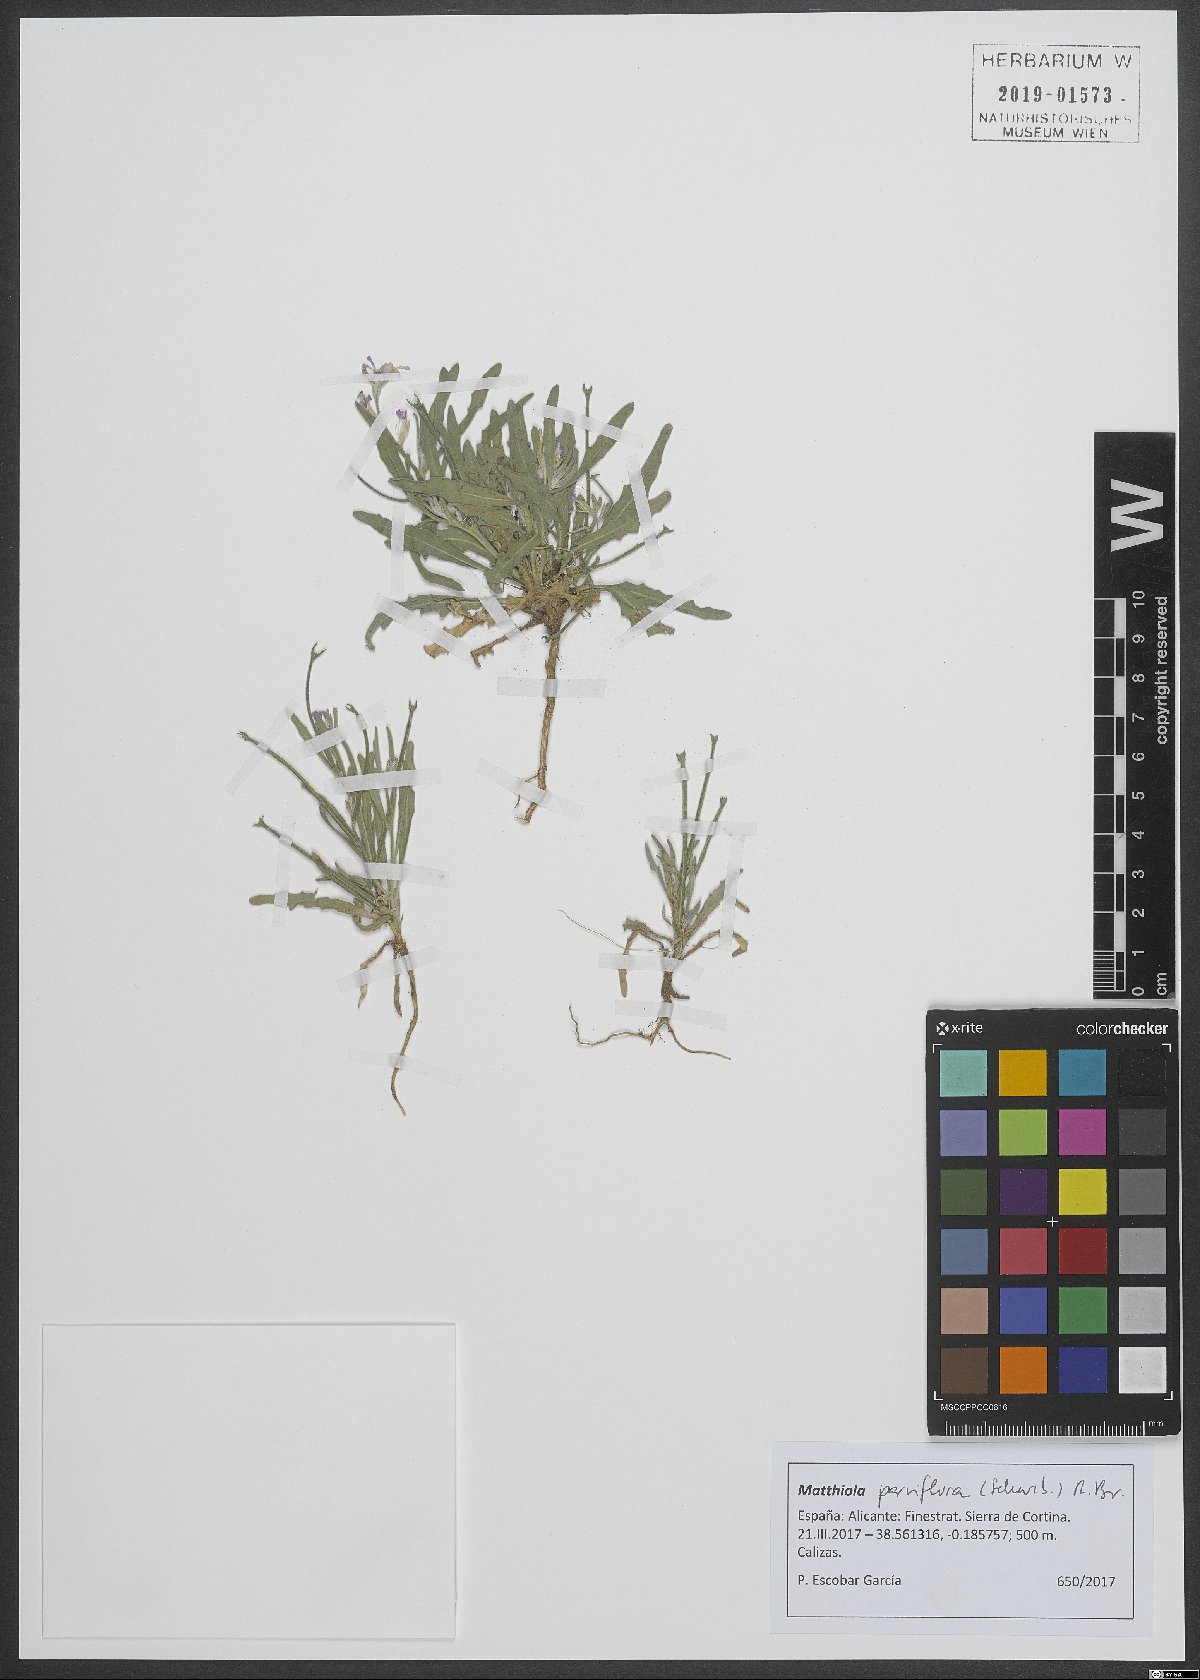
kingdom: Plantae
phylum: Tracheophyta
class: Magnoliopsida
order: Brassicales
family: Brassicaceae
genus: Matthiola
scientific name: Matthiola parviflora
